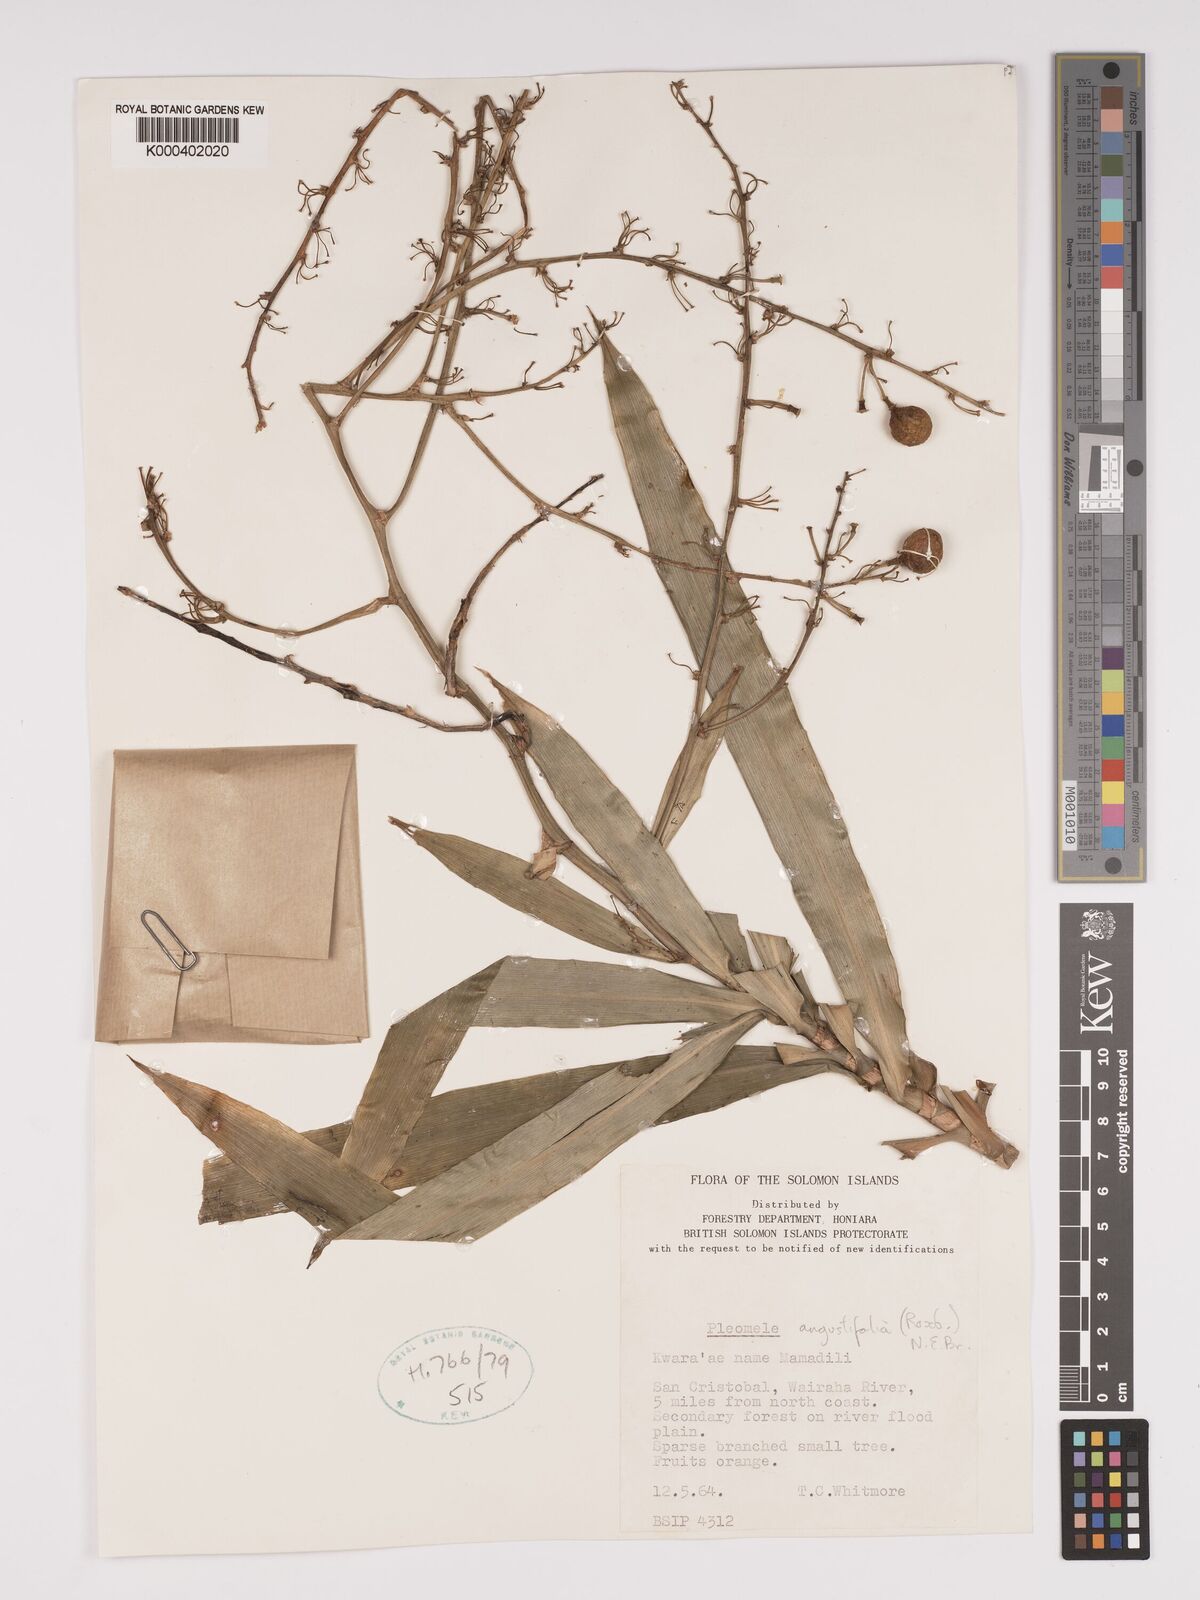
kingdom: Plantae
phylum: Tracheophyta
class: Liliopsida
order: Asparagales
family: Asparagaceae
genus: Dracaena
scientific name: Dracaena angustifolia
